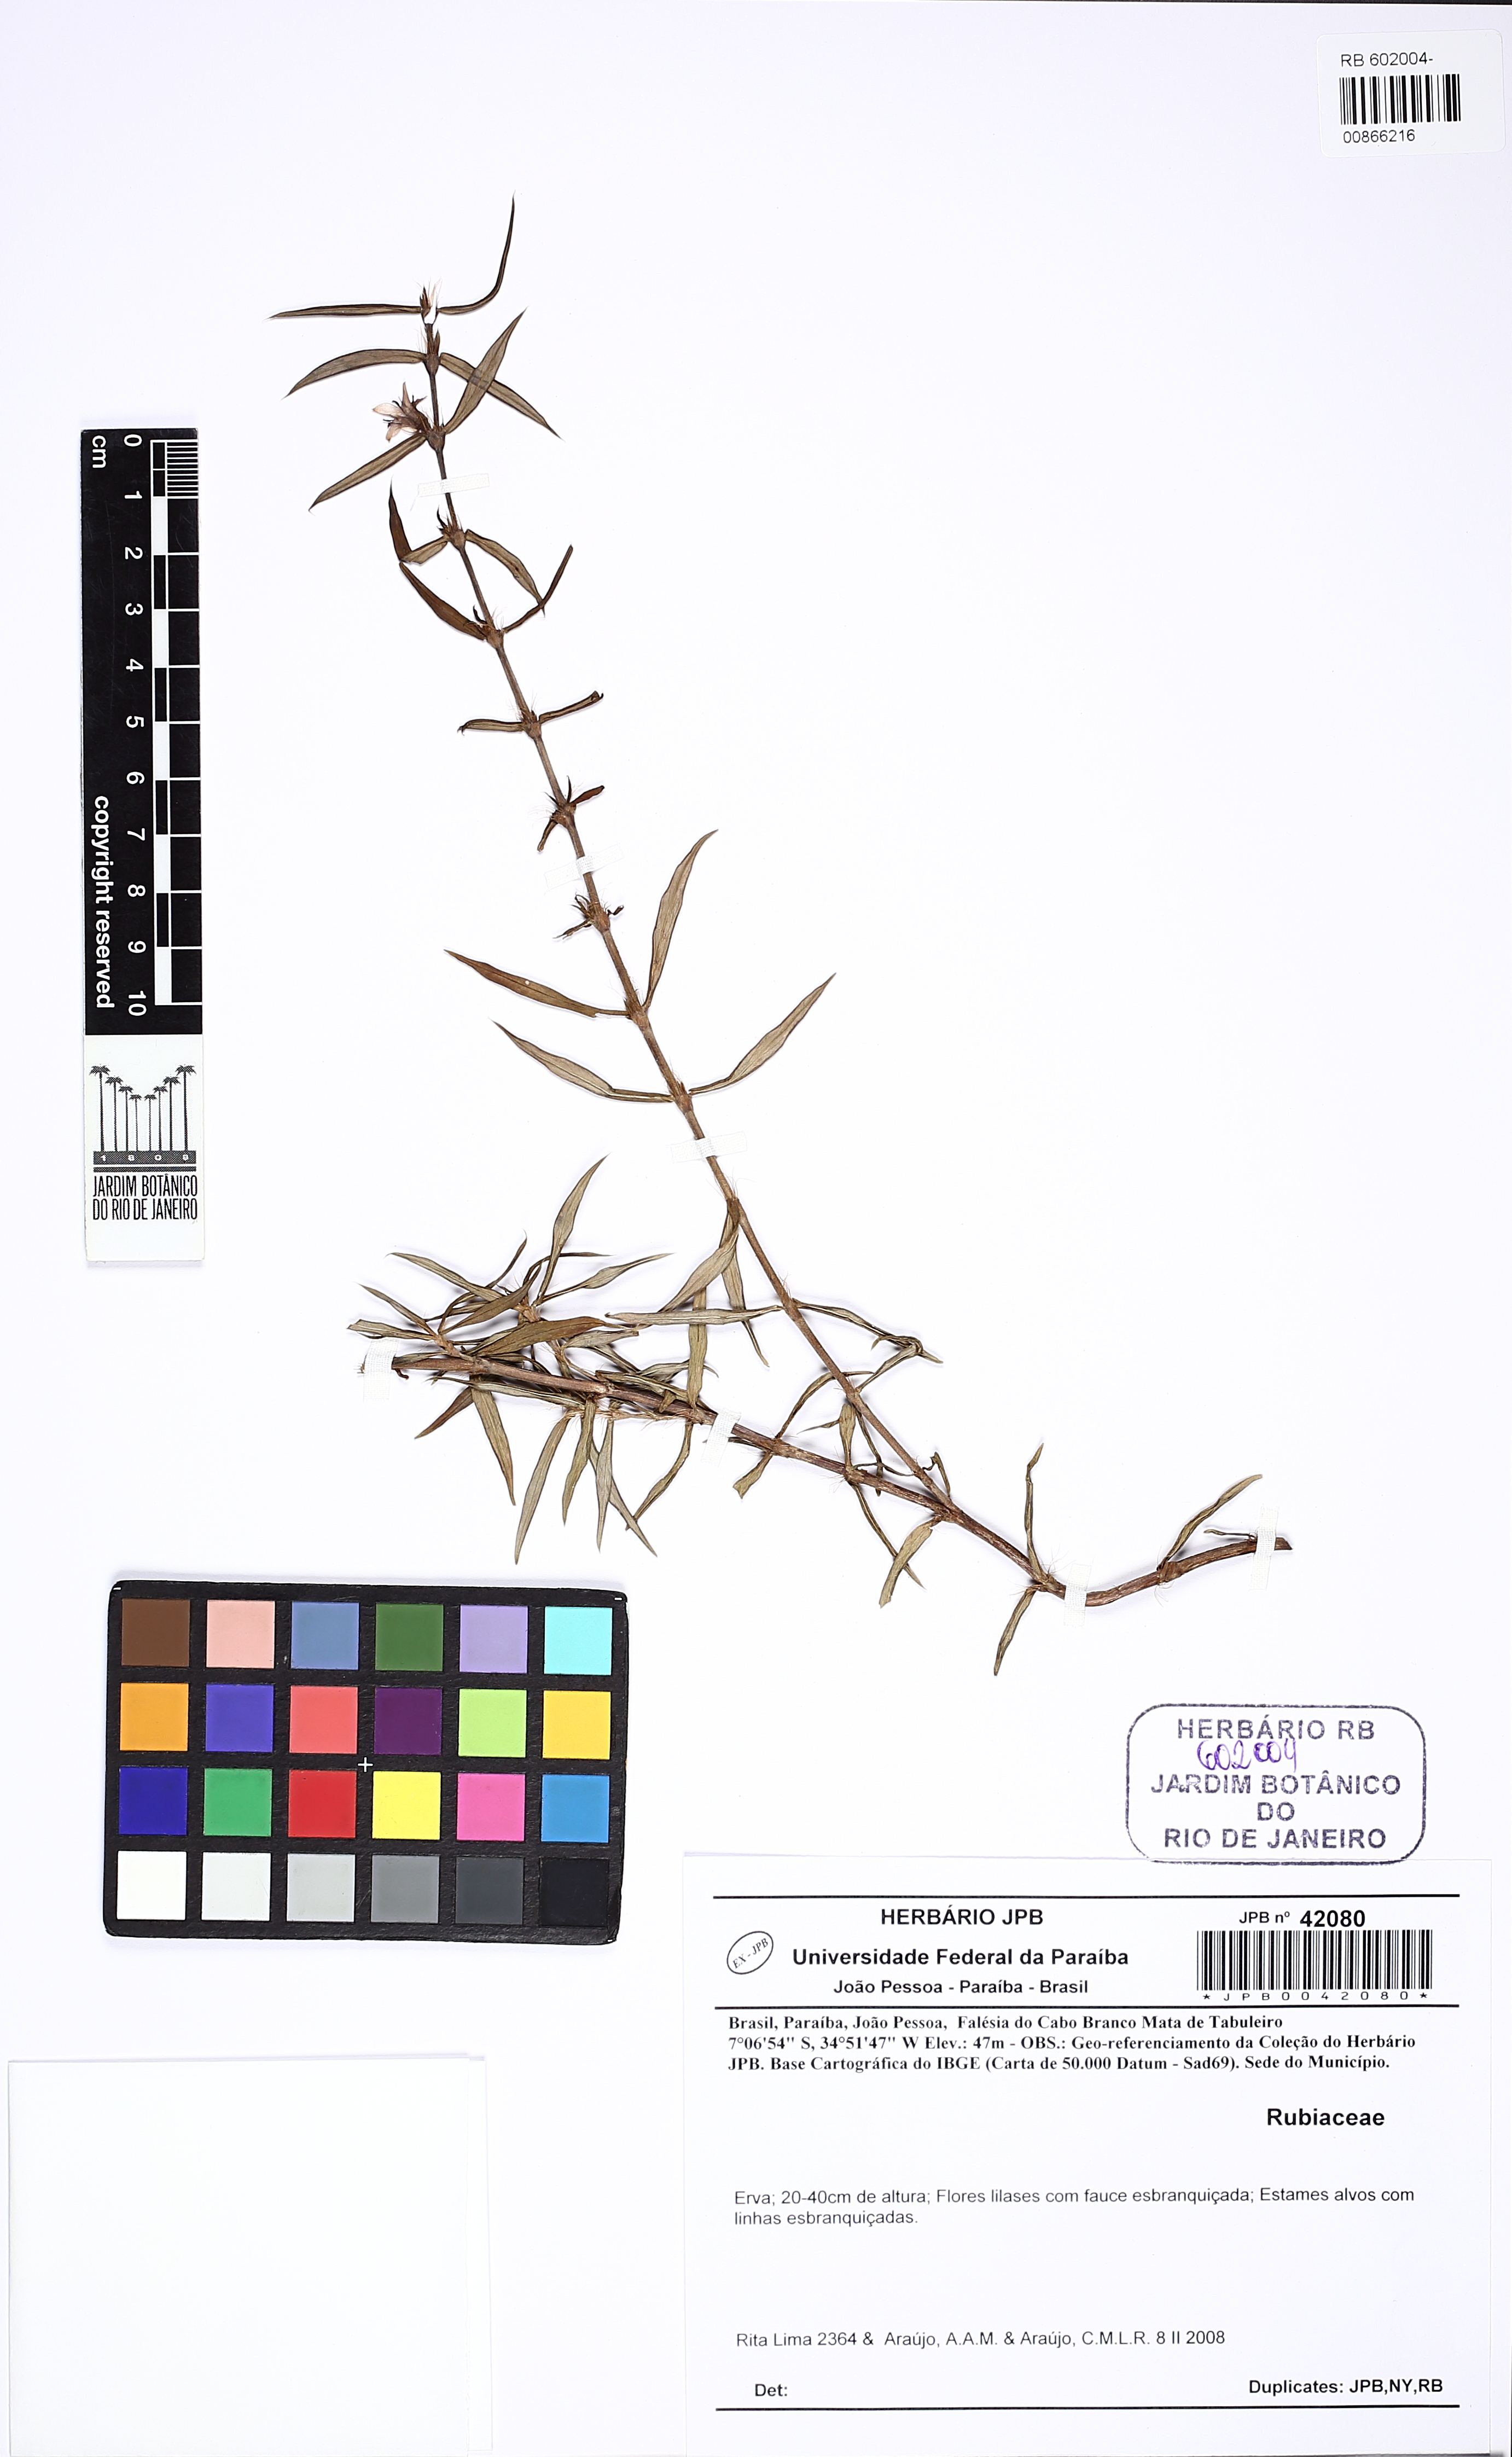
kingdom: Plantae
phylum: Tracheophyta
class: Magnoliopsida
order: Gentianales
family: Rubiaceae
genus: Hexasepalum
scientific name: Hexasepalum apiculatum
